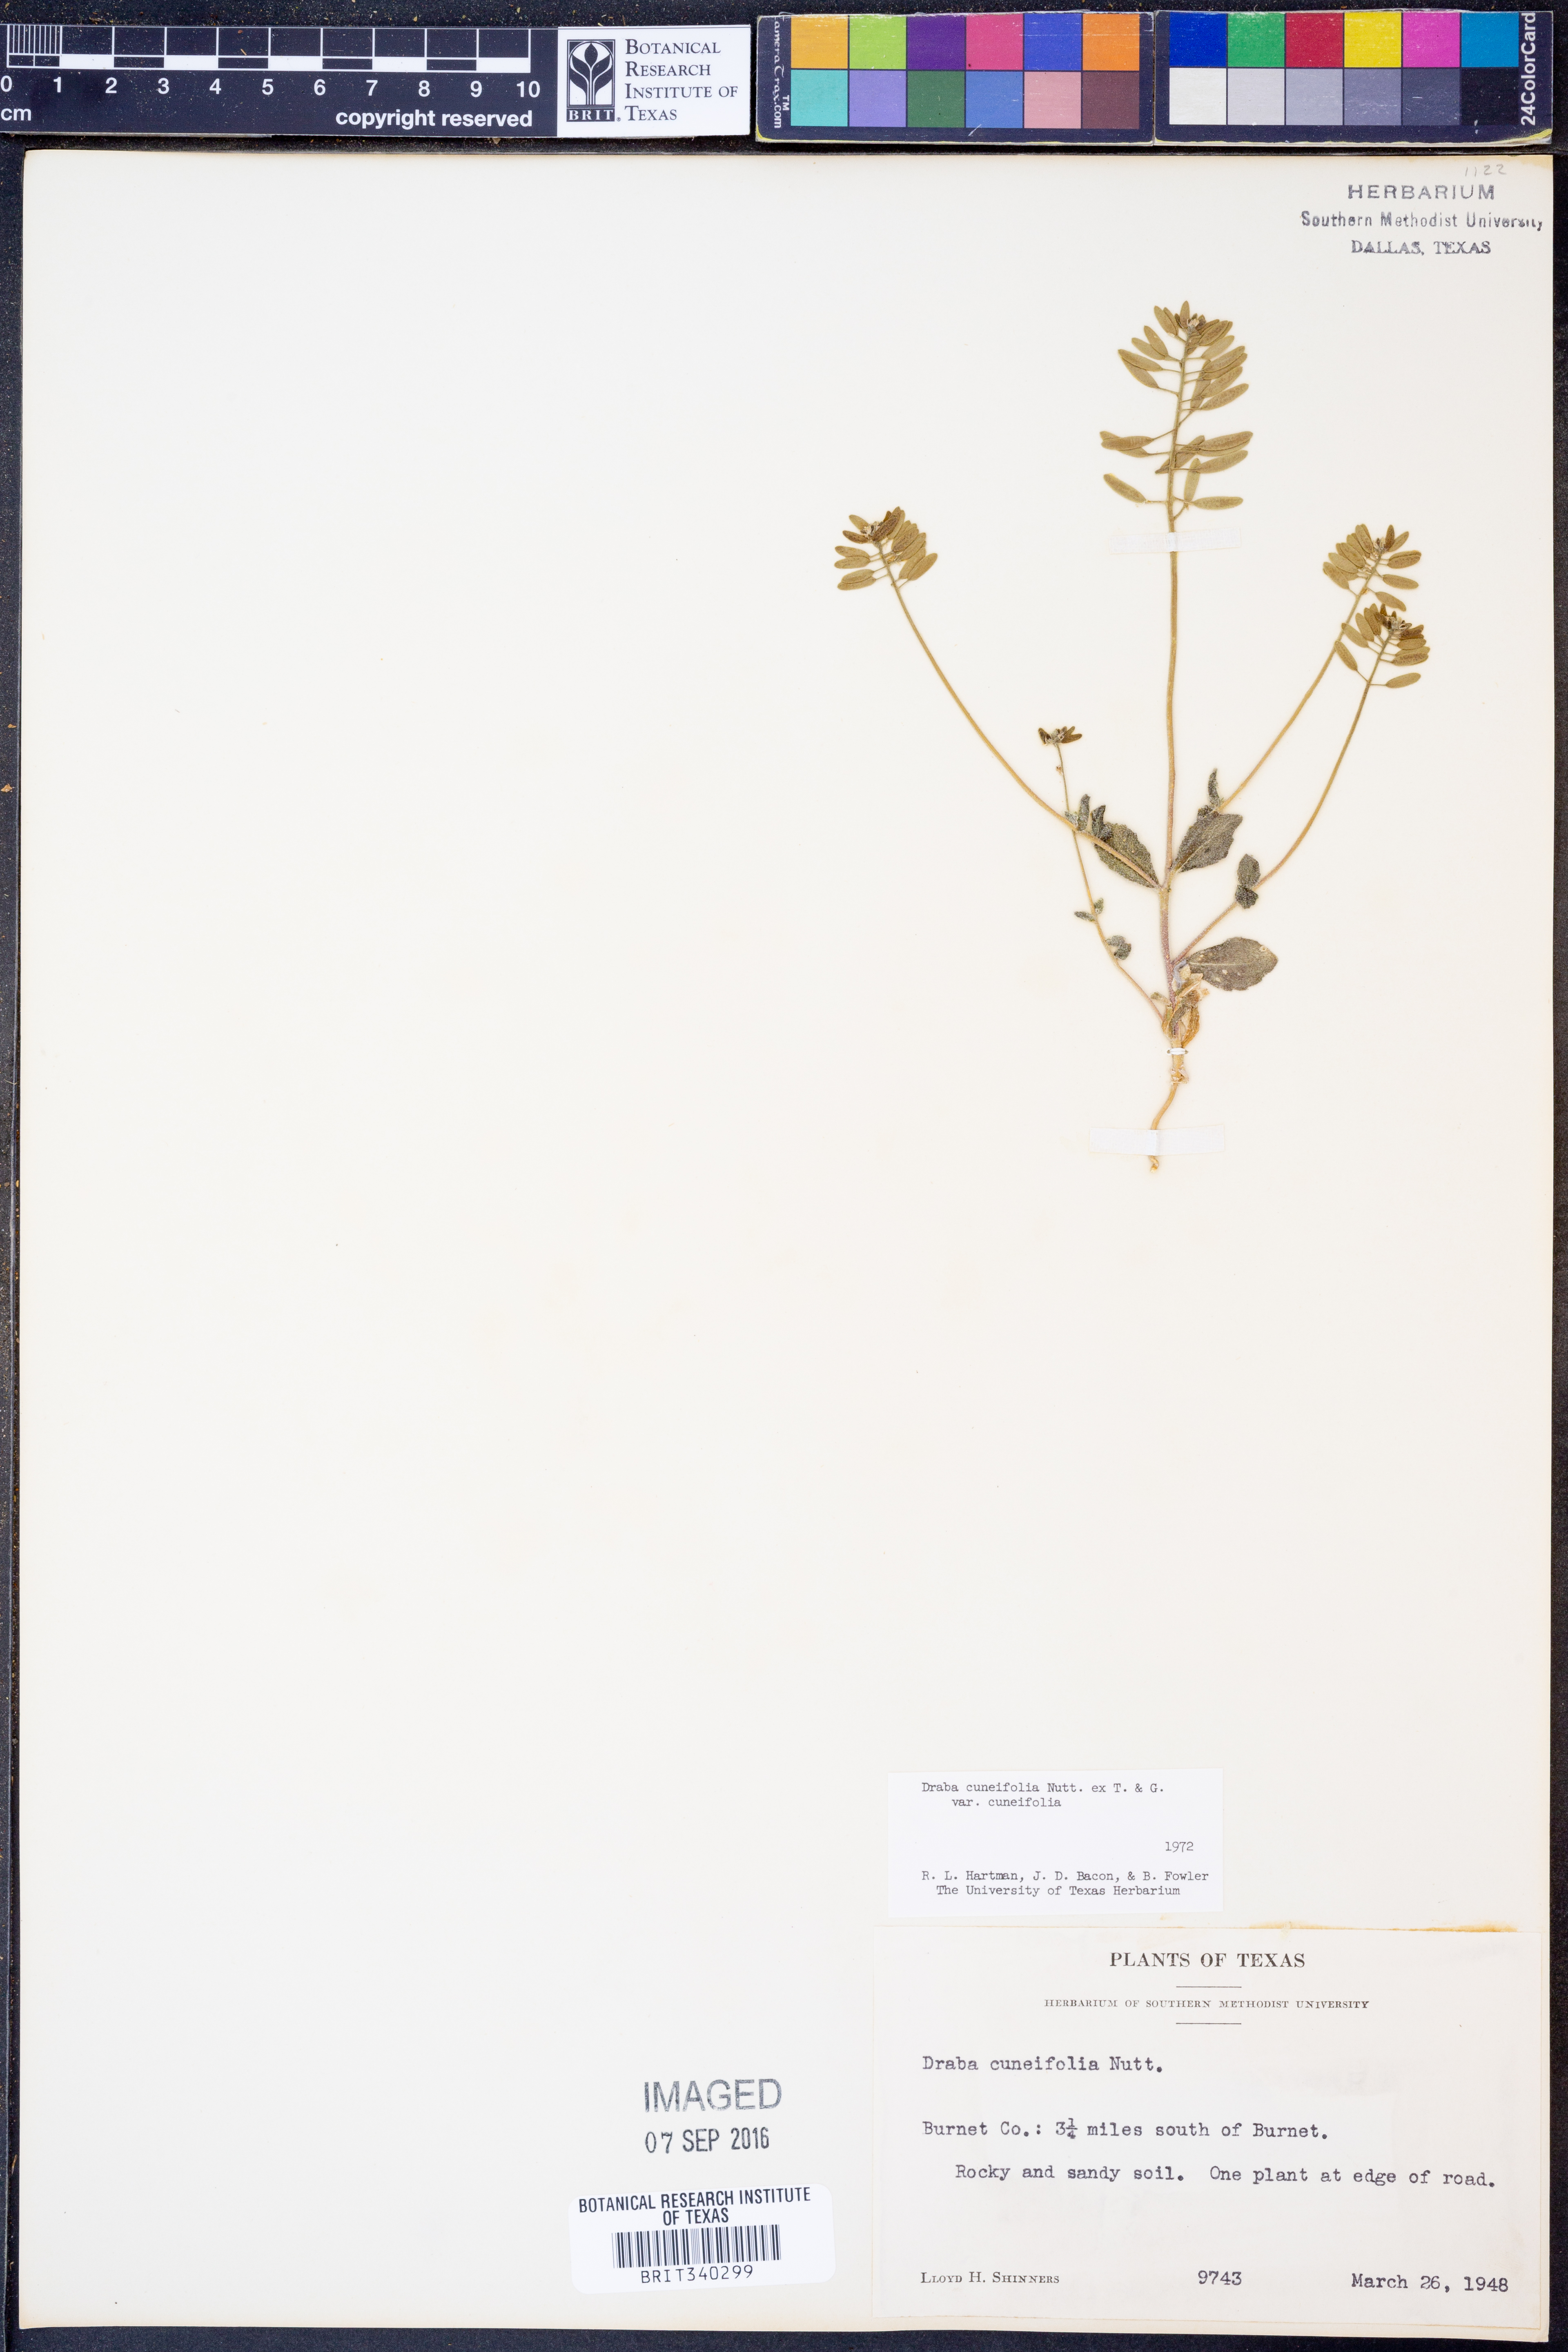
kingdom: Plantae
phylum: Tracheophyta
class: Magnoliopsida
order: Brassicales
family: Brassicaceae
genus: Tomostima
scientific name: Tomostima cuneifolia
